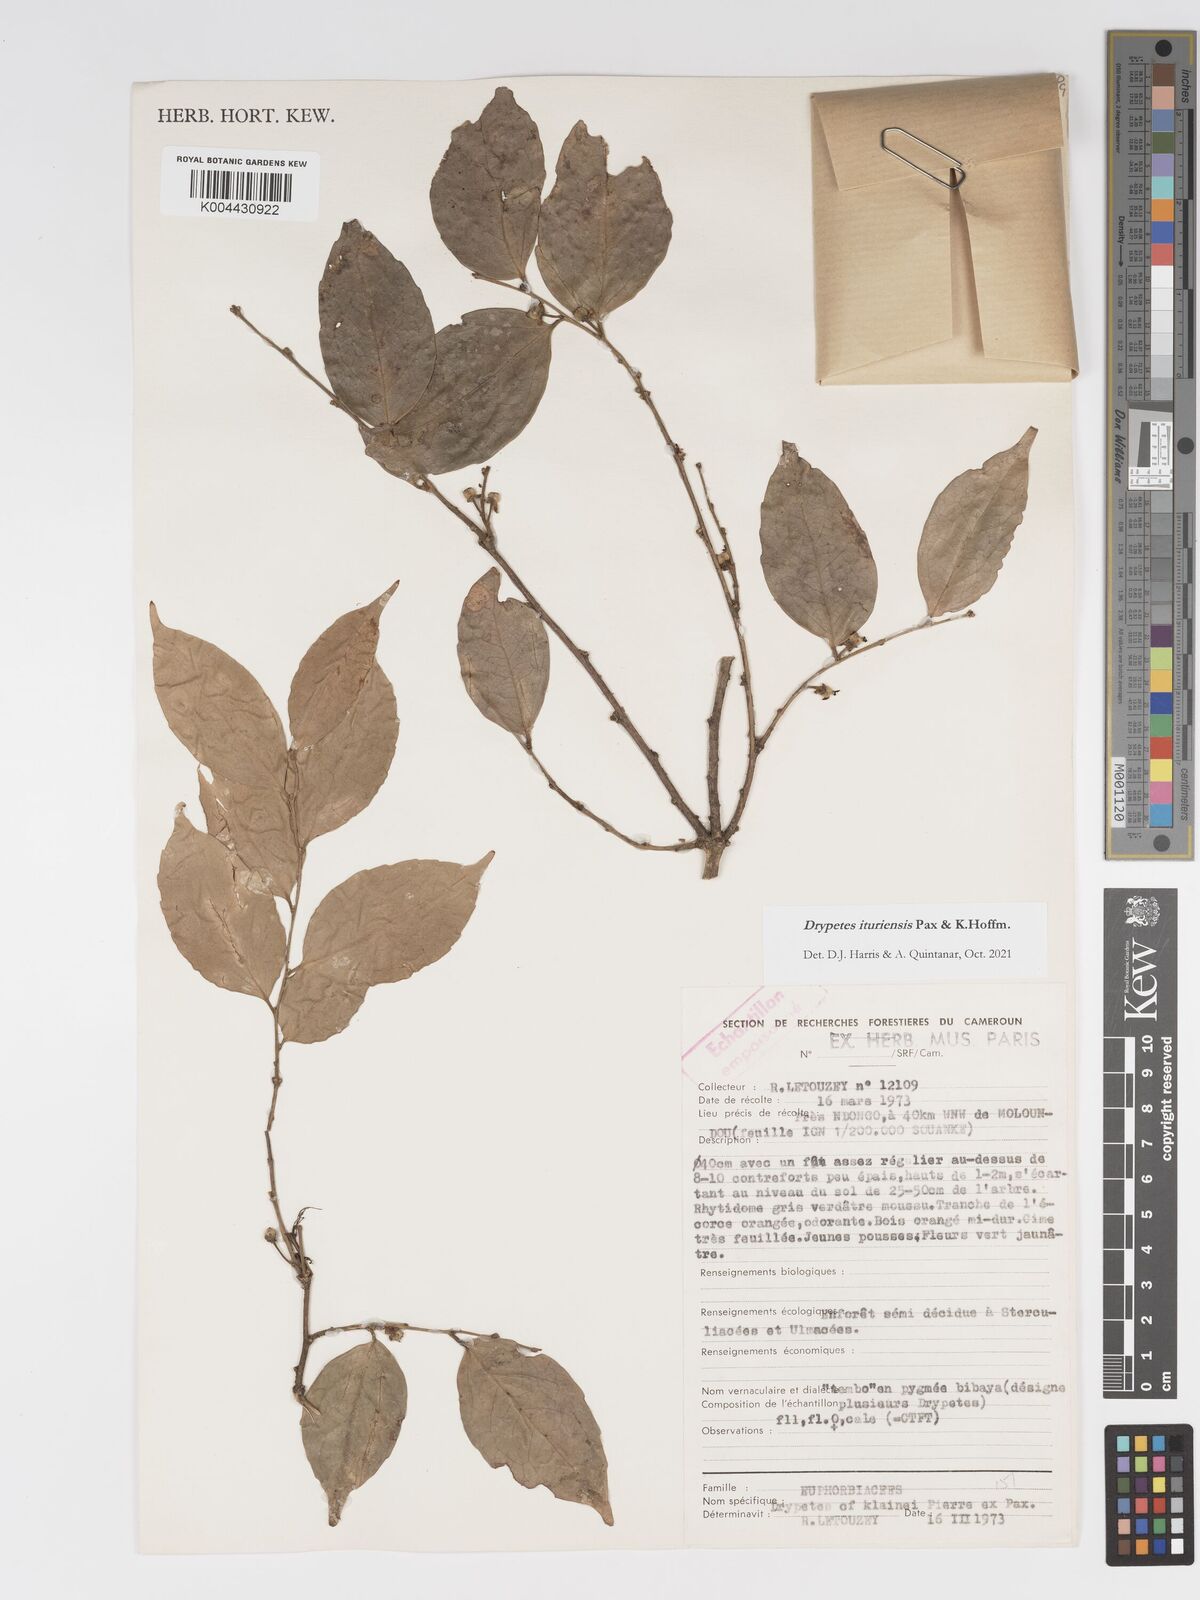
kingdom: Plantae
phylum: Tracheophyta
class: Magnoliopsida
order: Malpighiales
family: Putranjivaceae
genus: Drypetes
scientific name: Drypetes ituriensis
